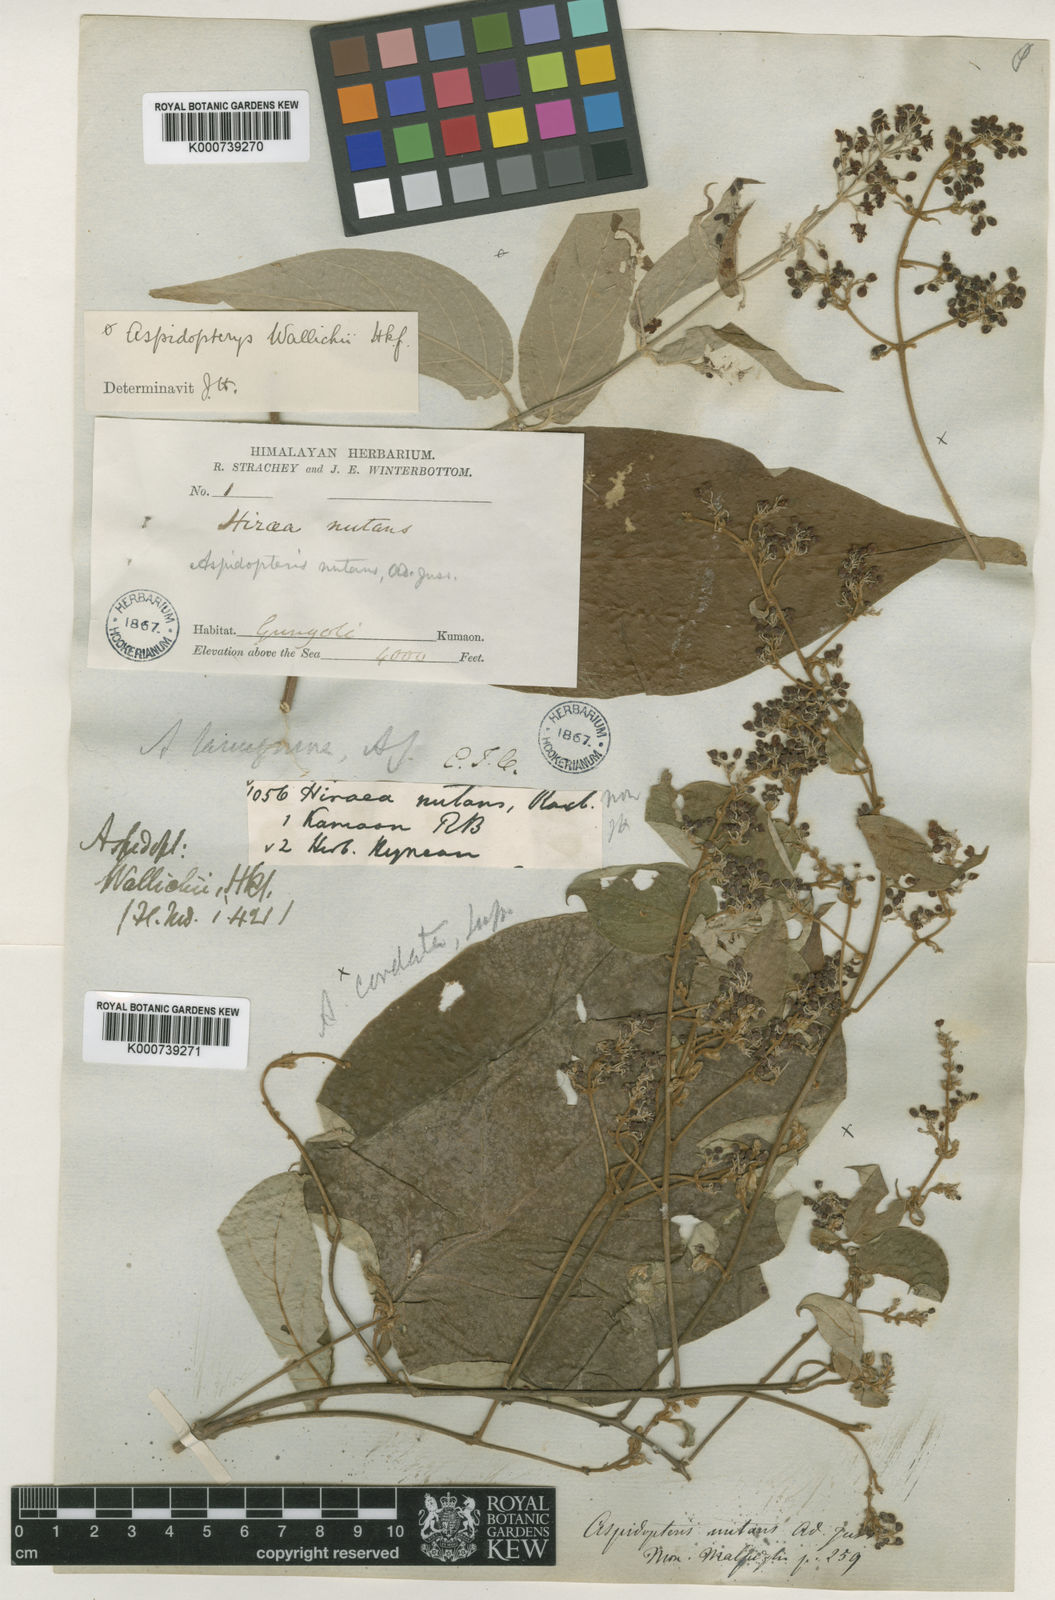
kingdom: Plantae
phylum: Tracheophyta
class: Magnoliopsida
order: Malpighiales
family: Malpighiaceae
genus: Aspidopterys
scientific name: Aspidopterys wallichii
